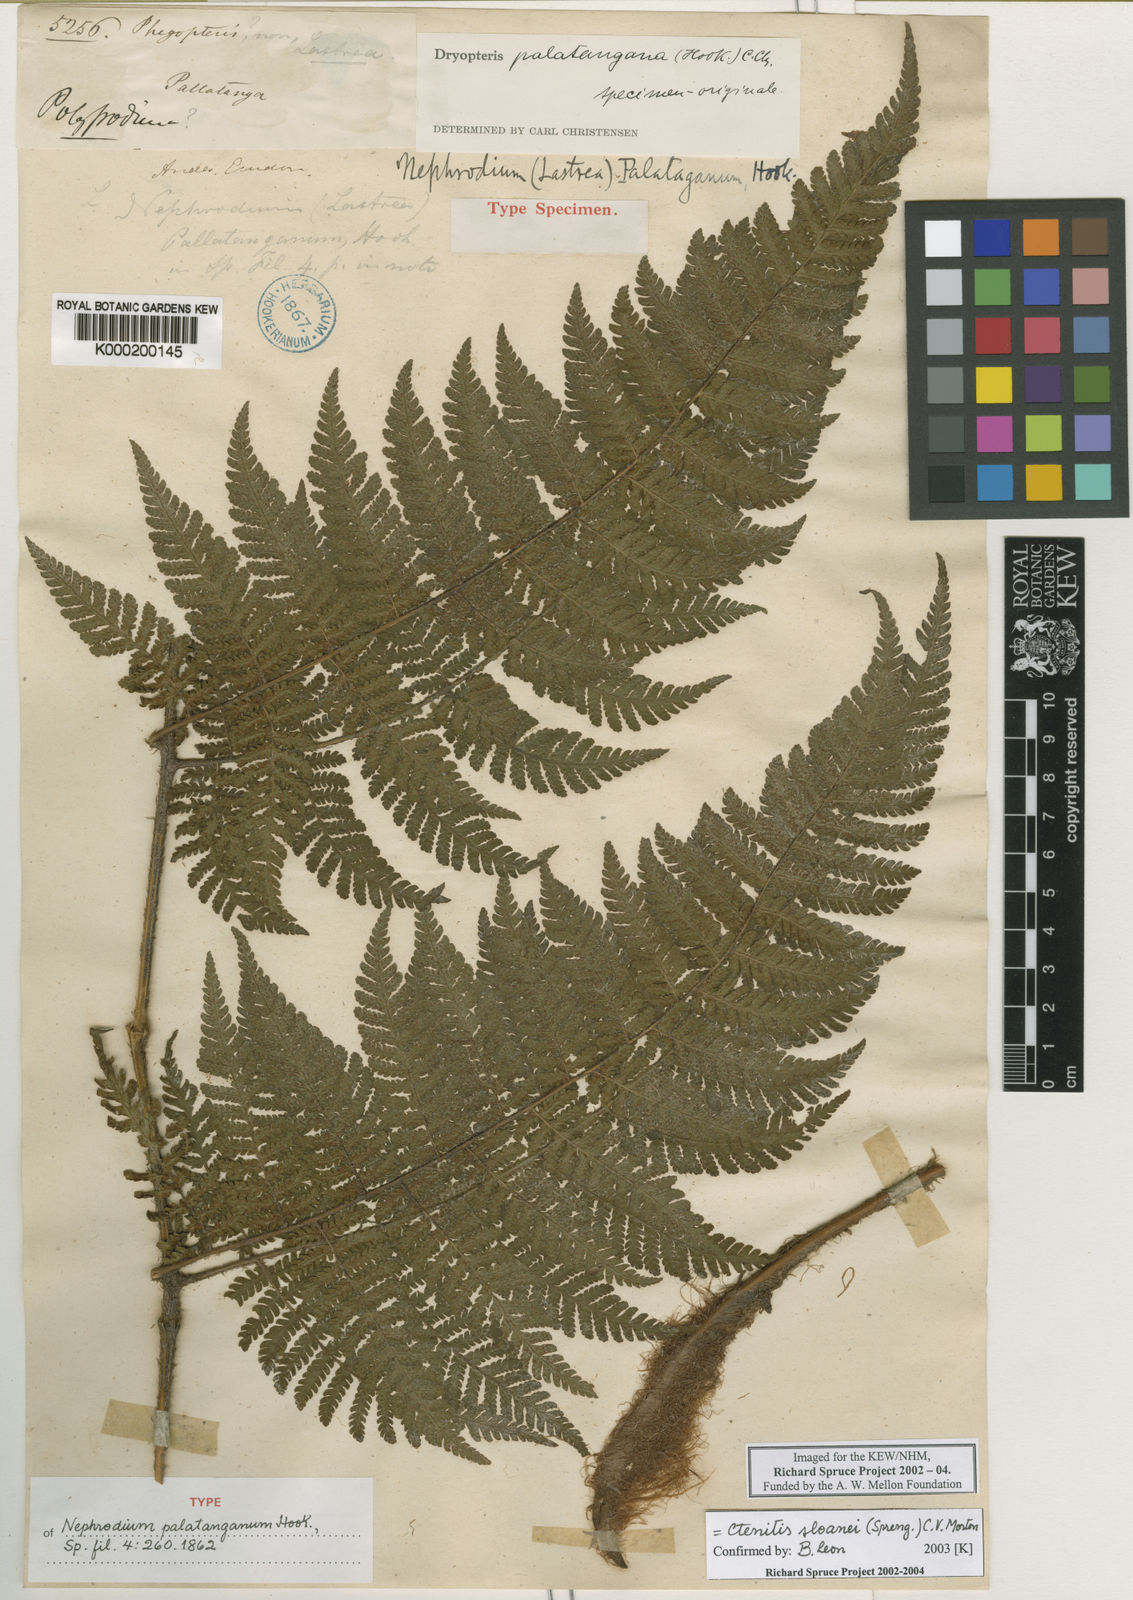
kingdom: Plantae
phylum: Tracheophyta
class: Polypodiopsida
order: Polypodiales
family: Dryopteridaceae
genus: Ctenitis
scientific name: Ctenitis sloanei
